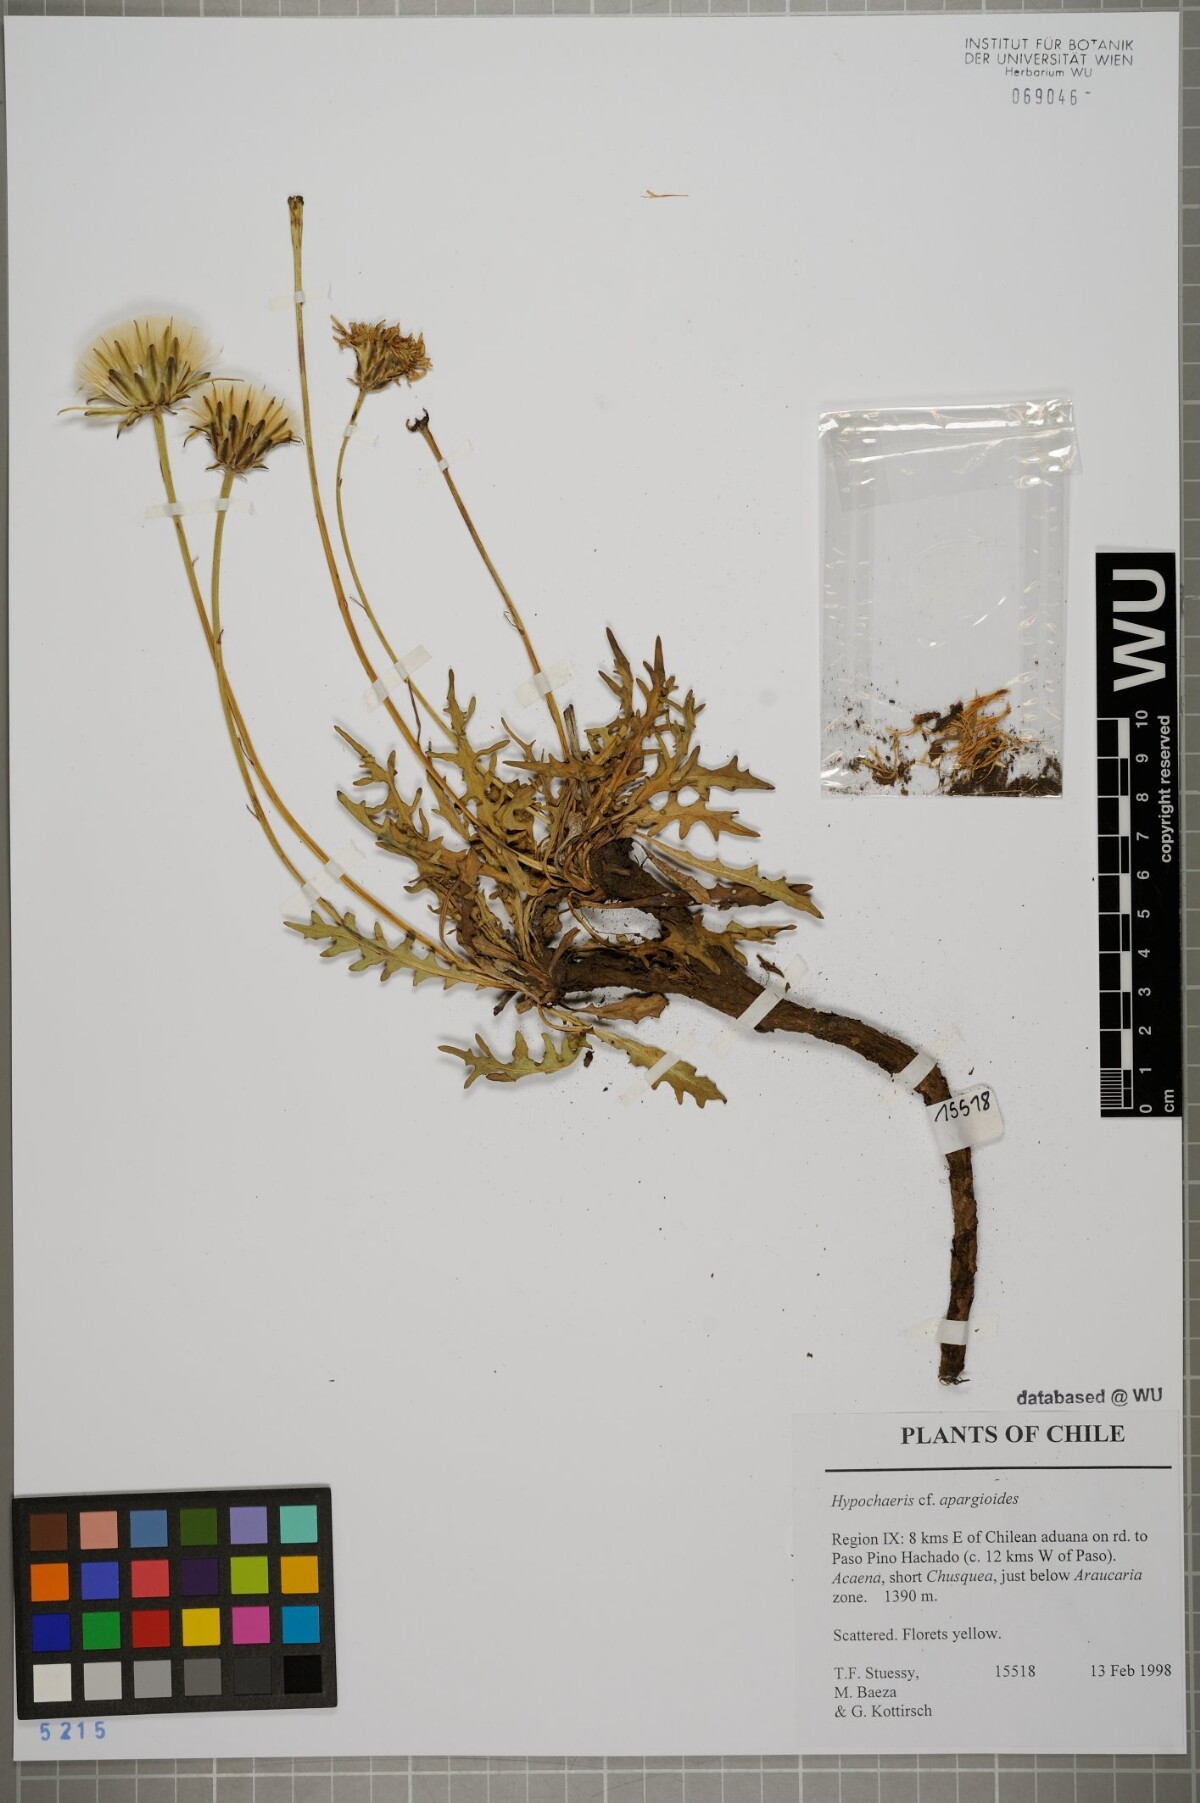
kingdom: Plantae
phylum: Tracheophyta
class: Magnoliopsida
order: Asterales
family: Asteraceae
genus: Hypochaeris
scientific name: Hypochaeris apargioides
